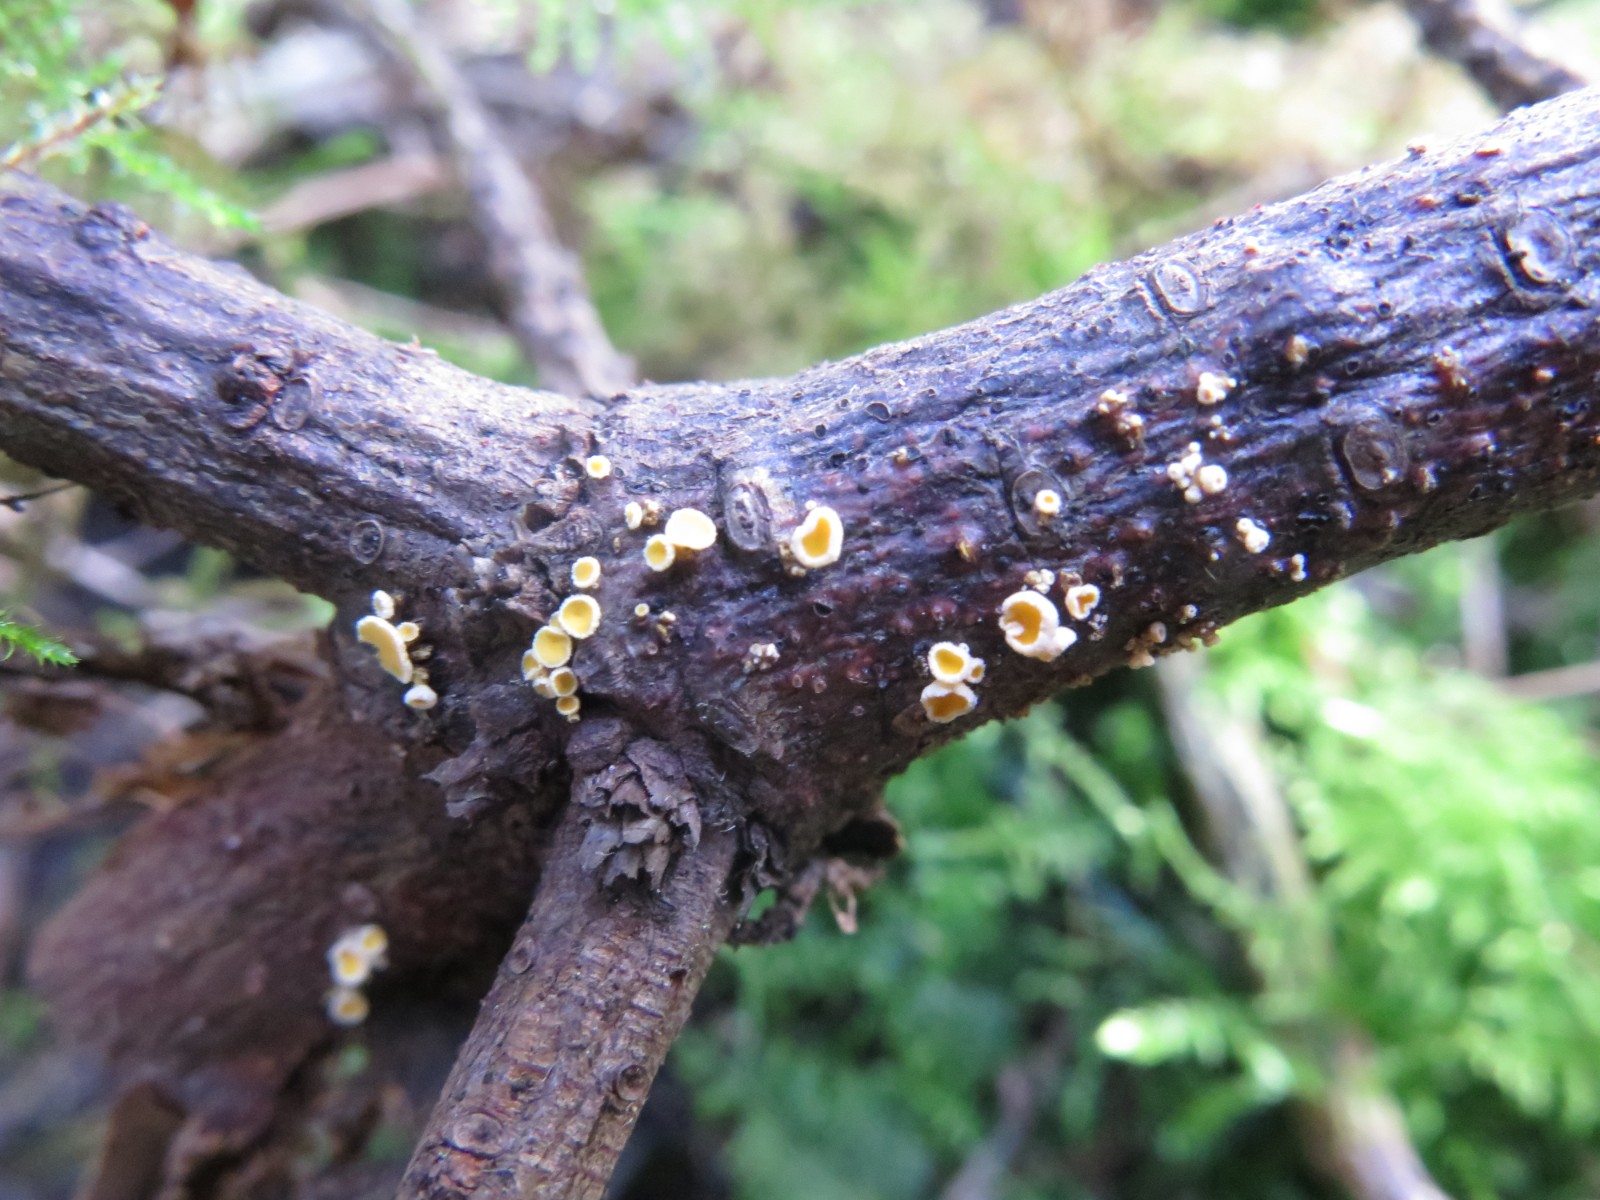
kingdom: Fungi
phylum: Ascomycota
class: Leotiomycetes
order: Helotiales
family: Lachnaceae
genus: Lachnellula
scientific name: Lachnellula calyciformis
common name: ædelgran-frynseskive
